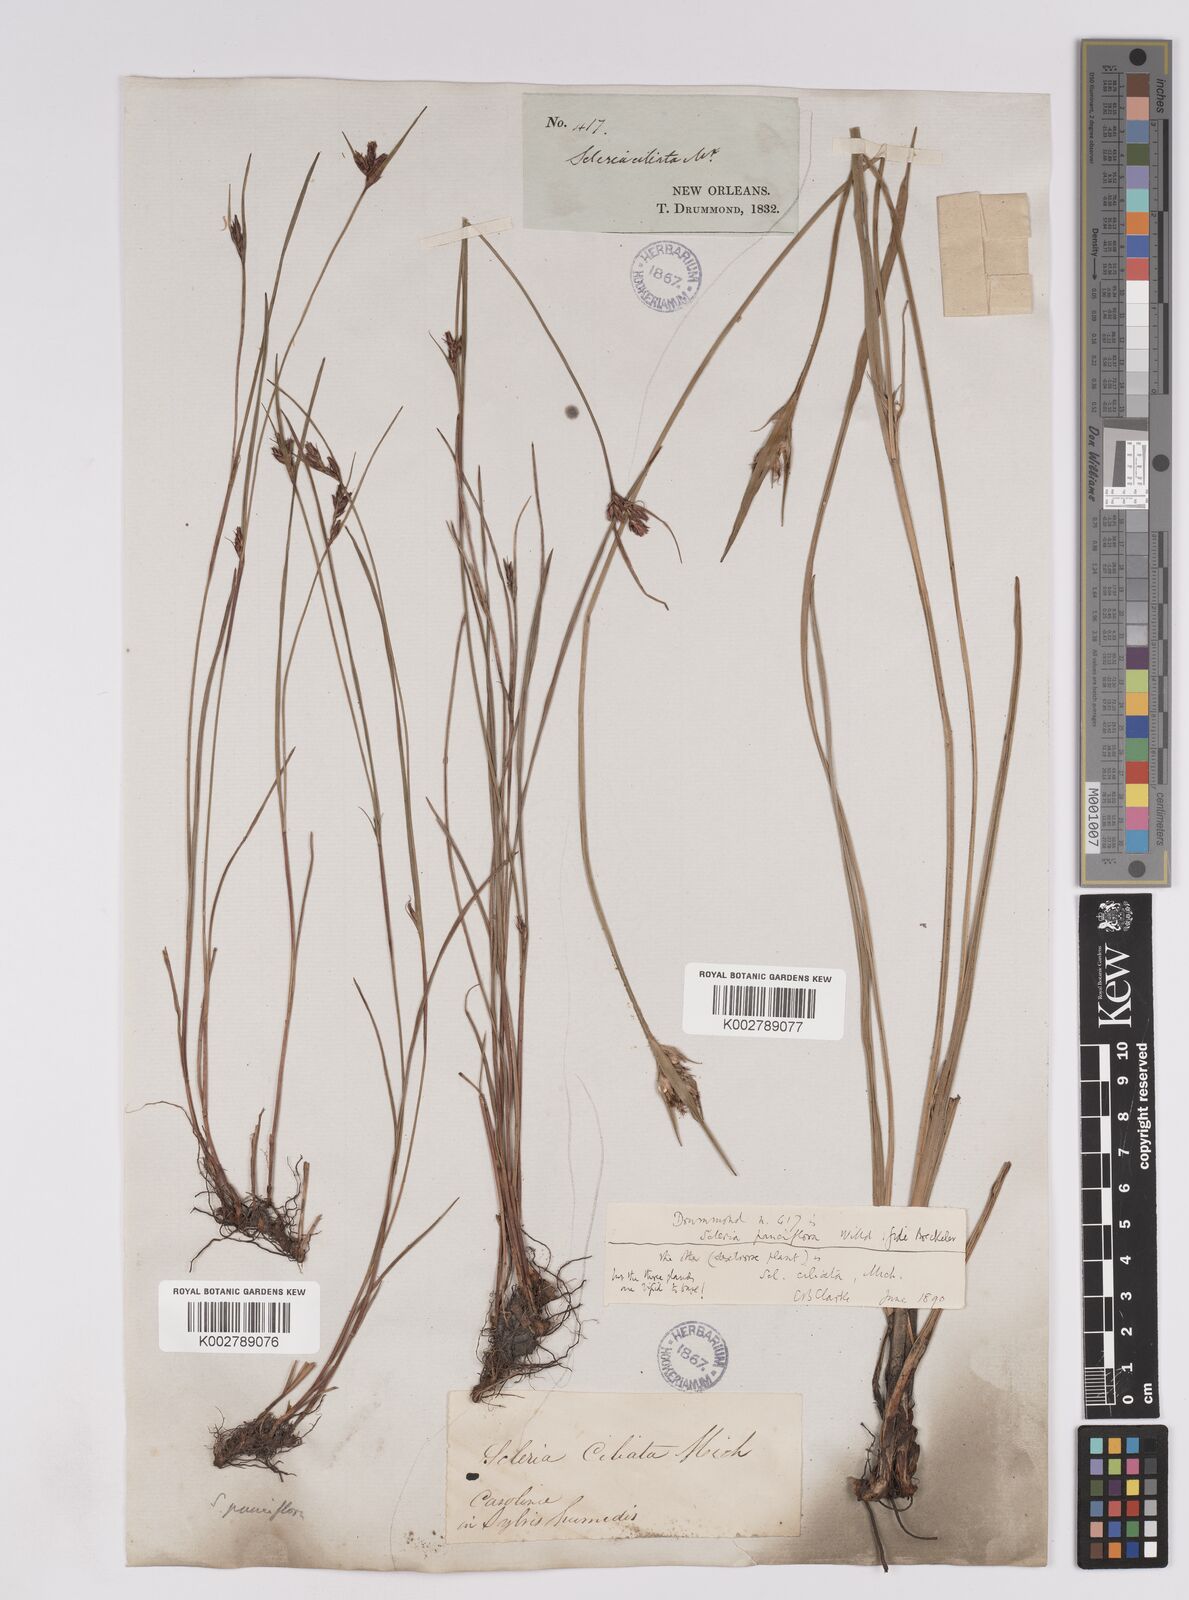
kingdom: Plantae
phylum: Tracheophyta
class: Liliopsida
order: Poales
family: Cyperaceae
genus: Scleria
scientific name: Scleria ciliata
